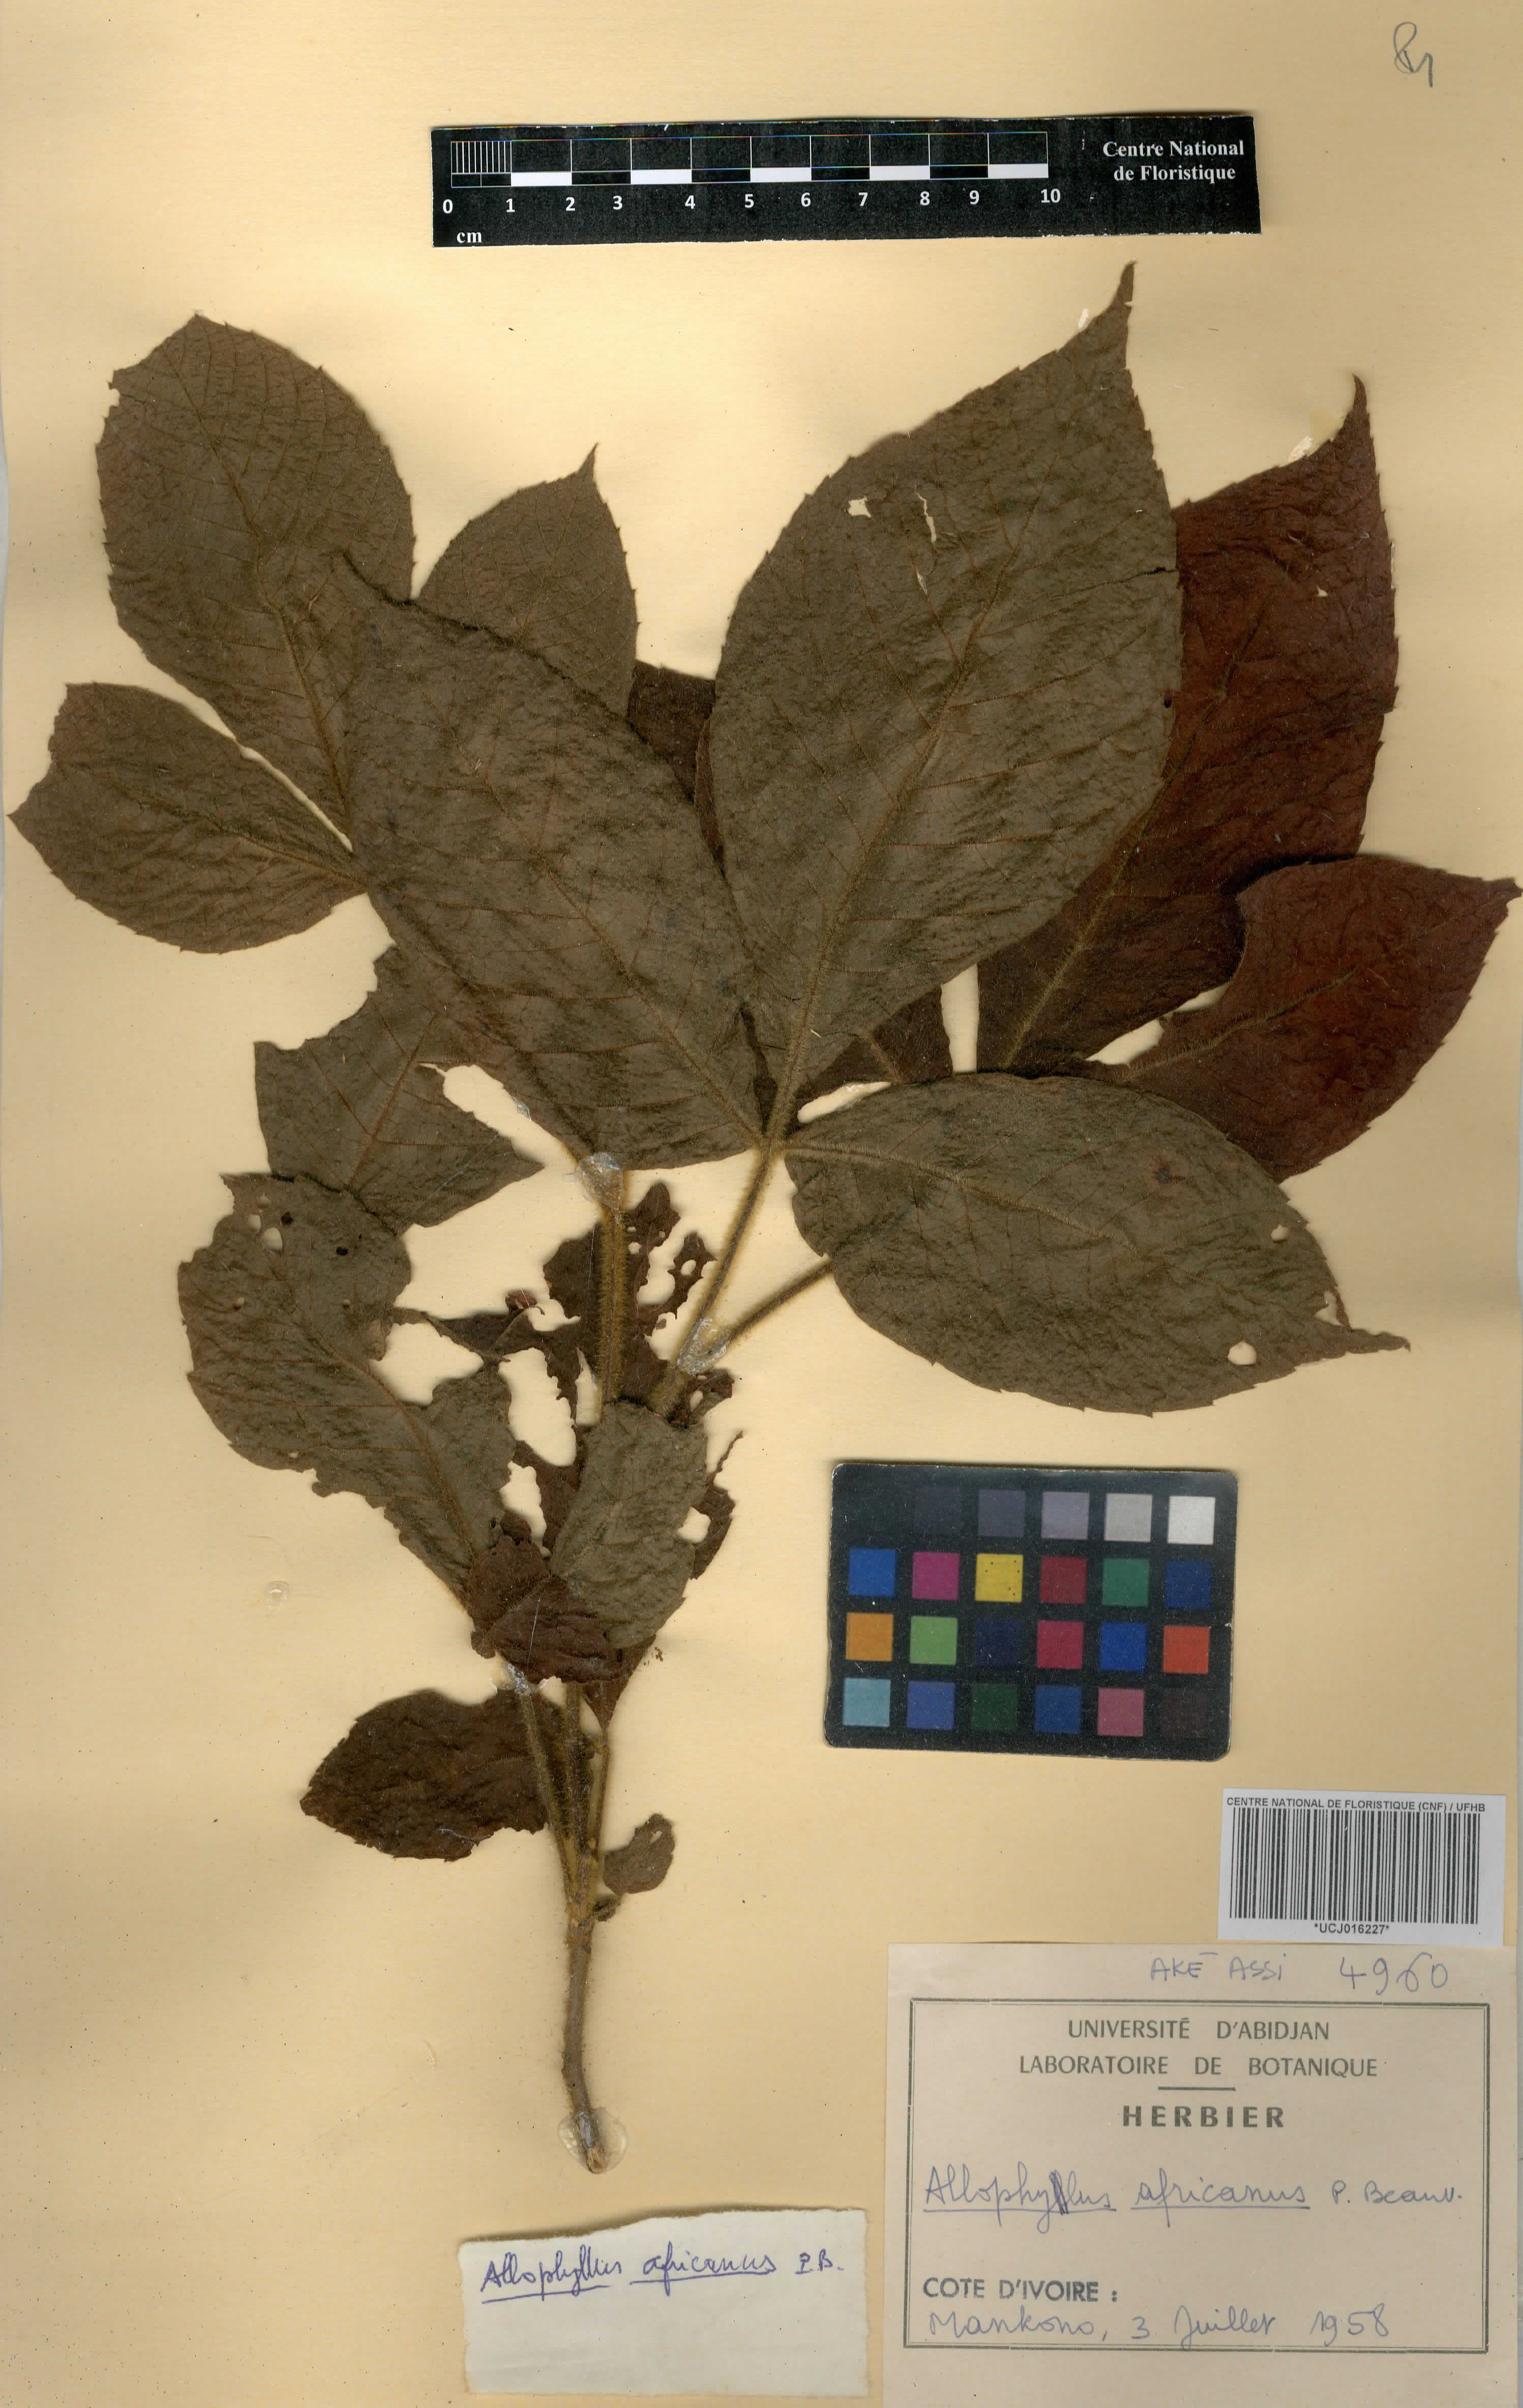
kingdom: Plantae
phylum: Tracheophyta
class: Magnoliopsida
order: Sapindales
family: Sapindaceae
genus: Allophylus
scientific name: Allophylus africanus
